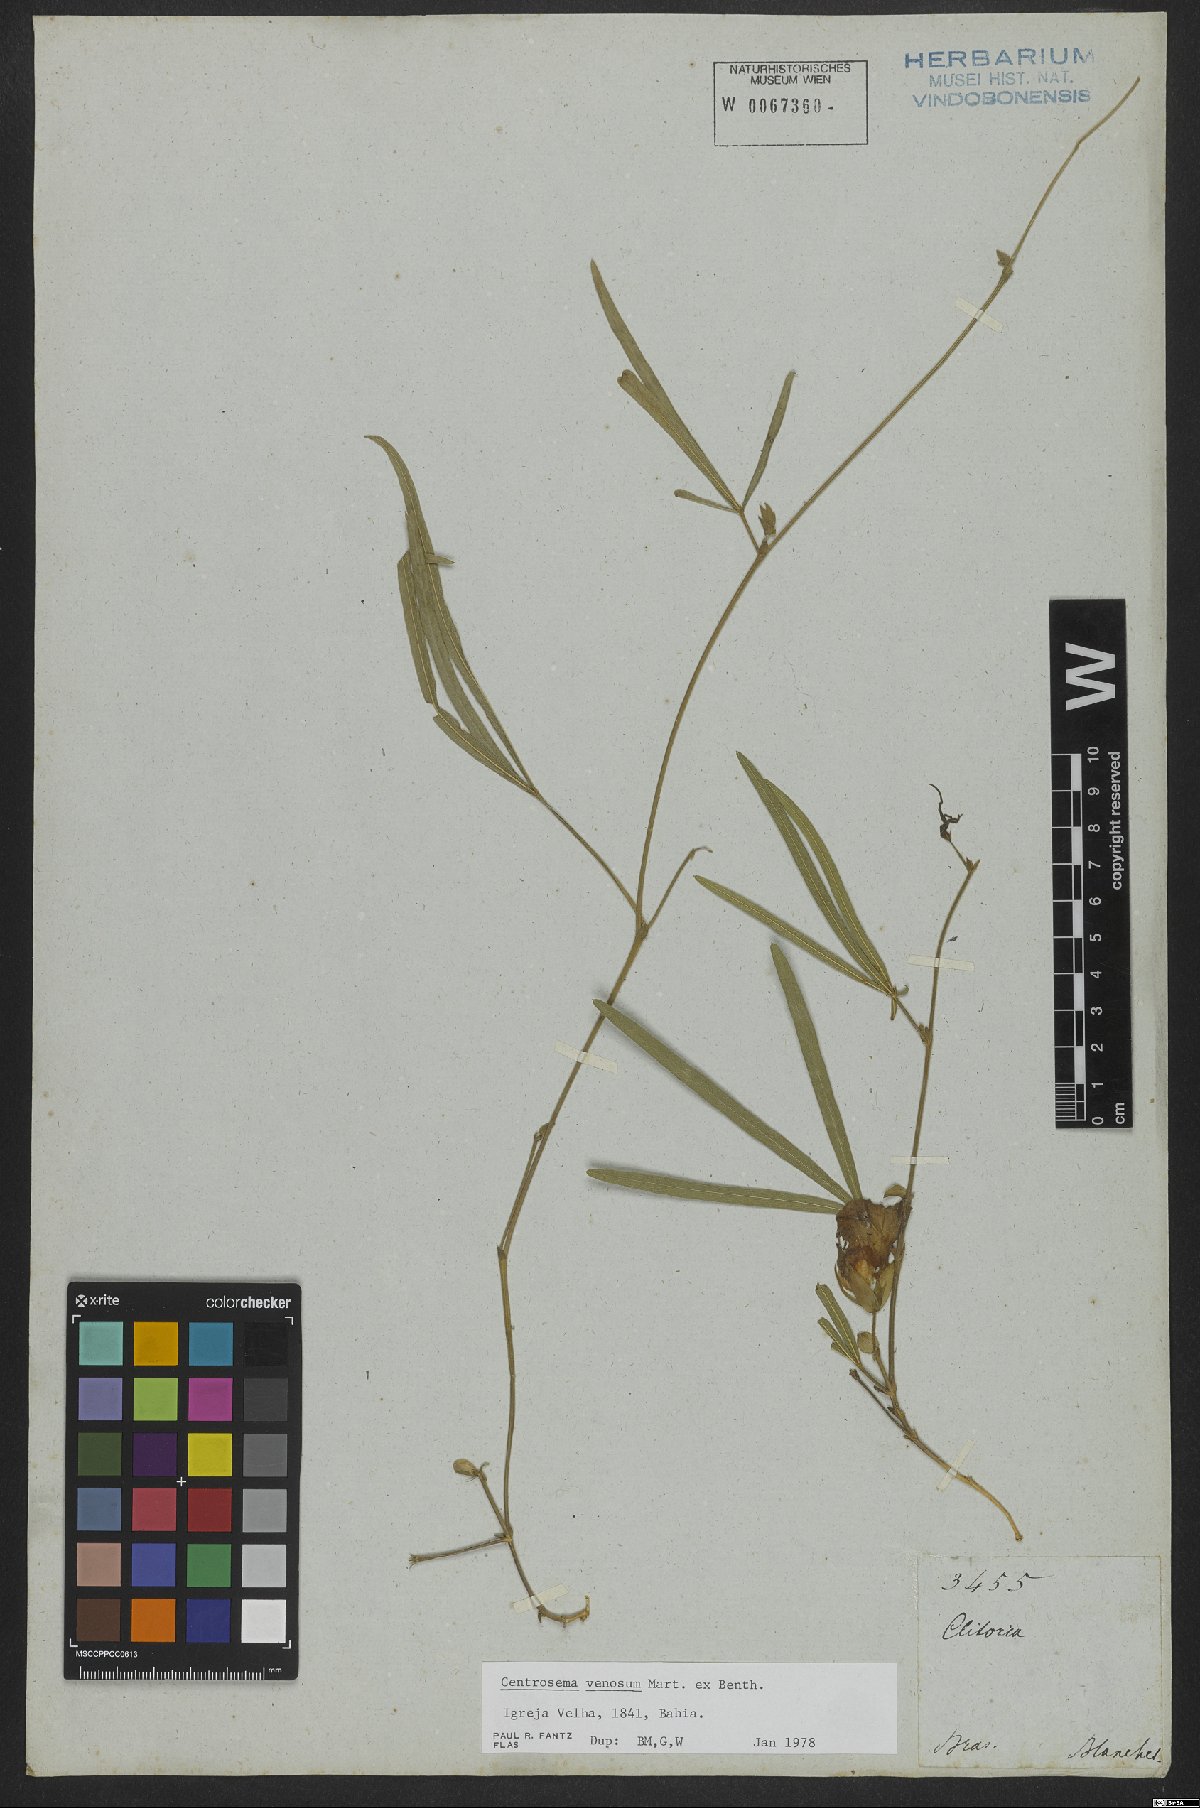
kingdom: Plantae
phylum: Tracheophyta
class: Magnoliopsida
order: Fabales
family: Fabaceae
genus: Centrosema
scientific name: Centrosema venosum
